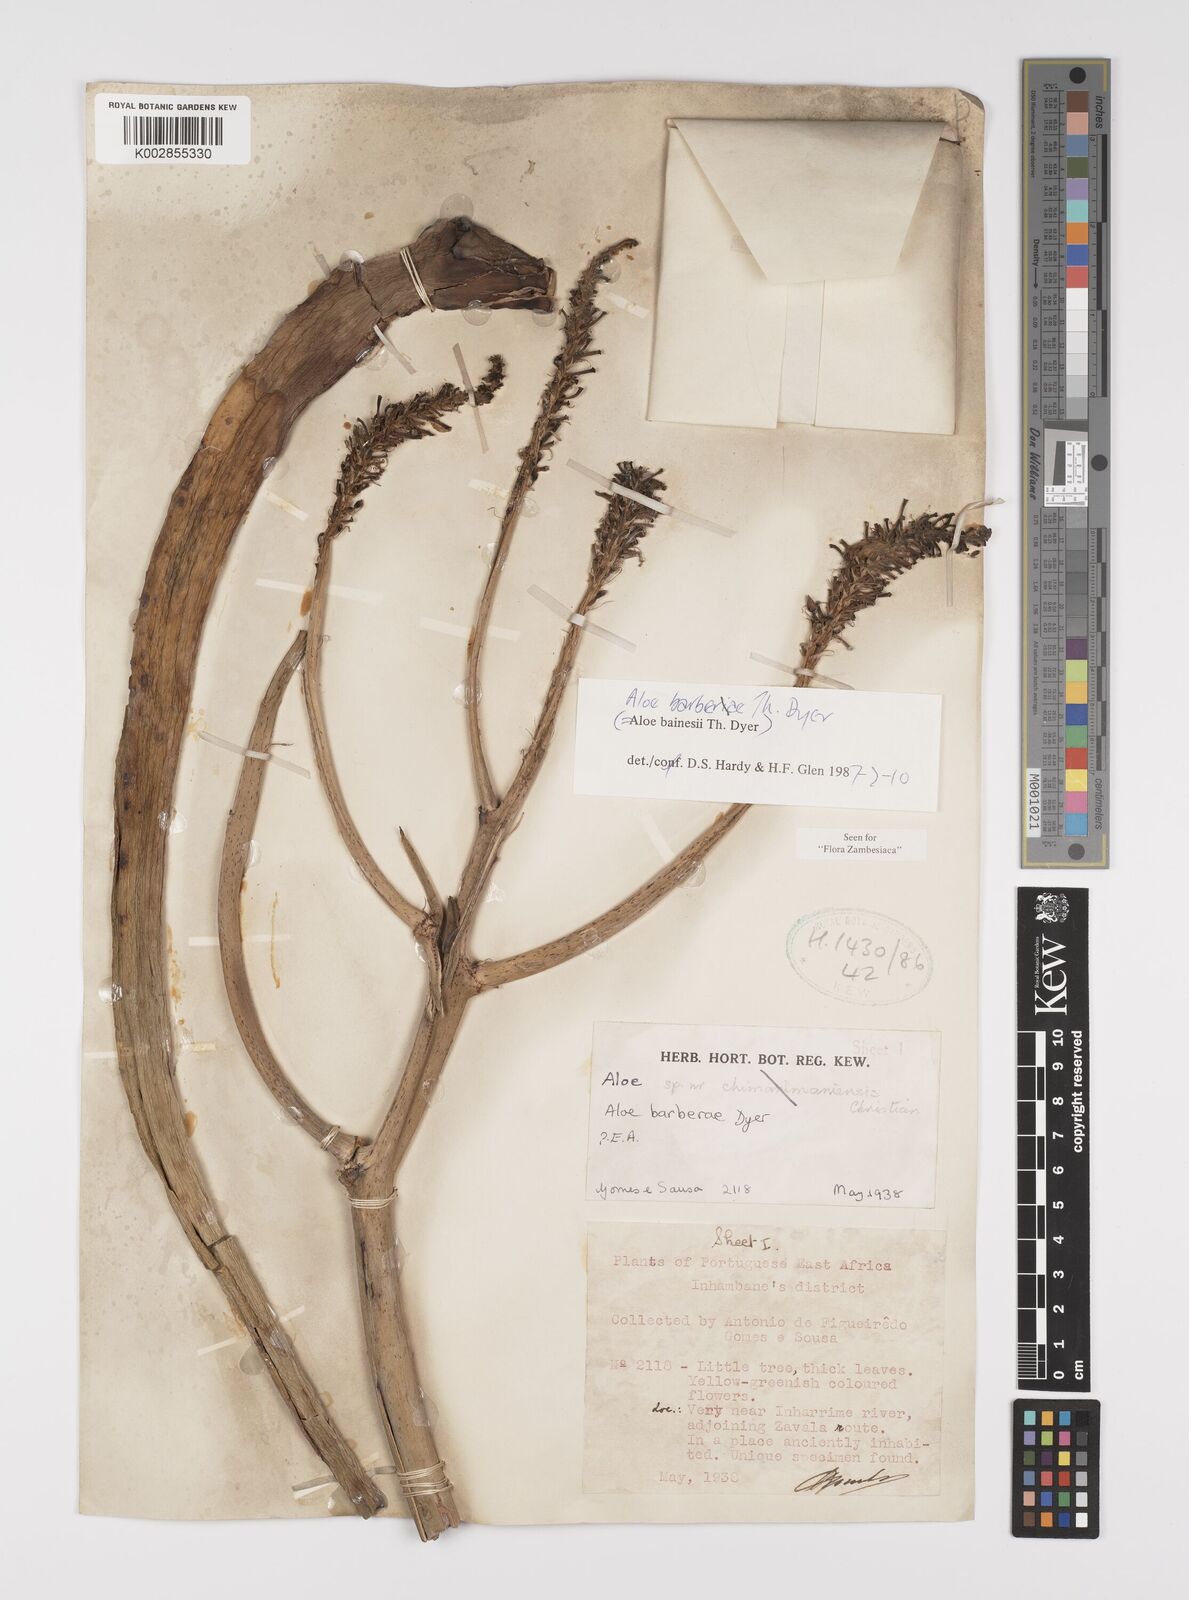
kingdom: Plantae
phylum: Tracheophyta
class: Liliopsida
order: Asparagales
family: Asphodelaceae
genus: Aloidendron
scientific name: Aloidendron barberae
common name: Tree aloe
